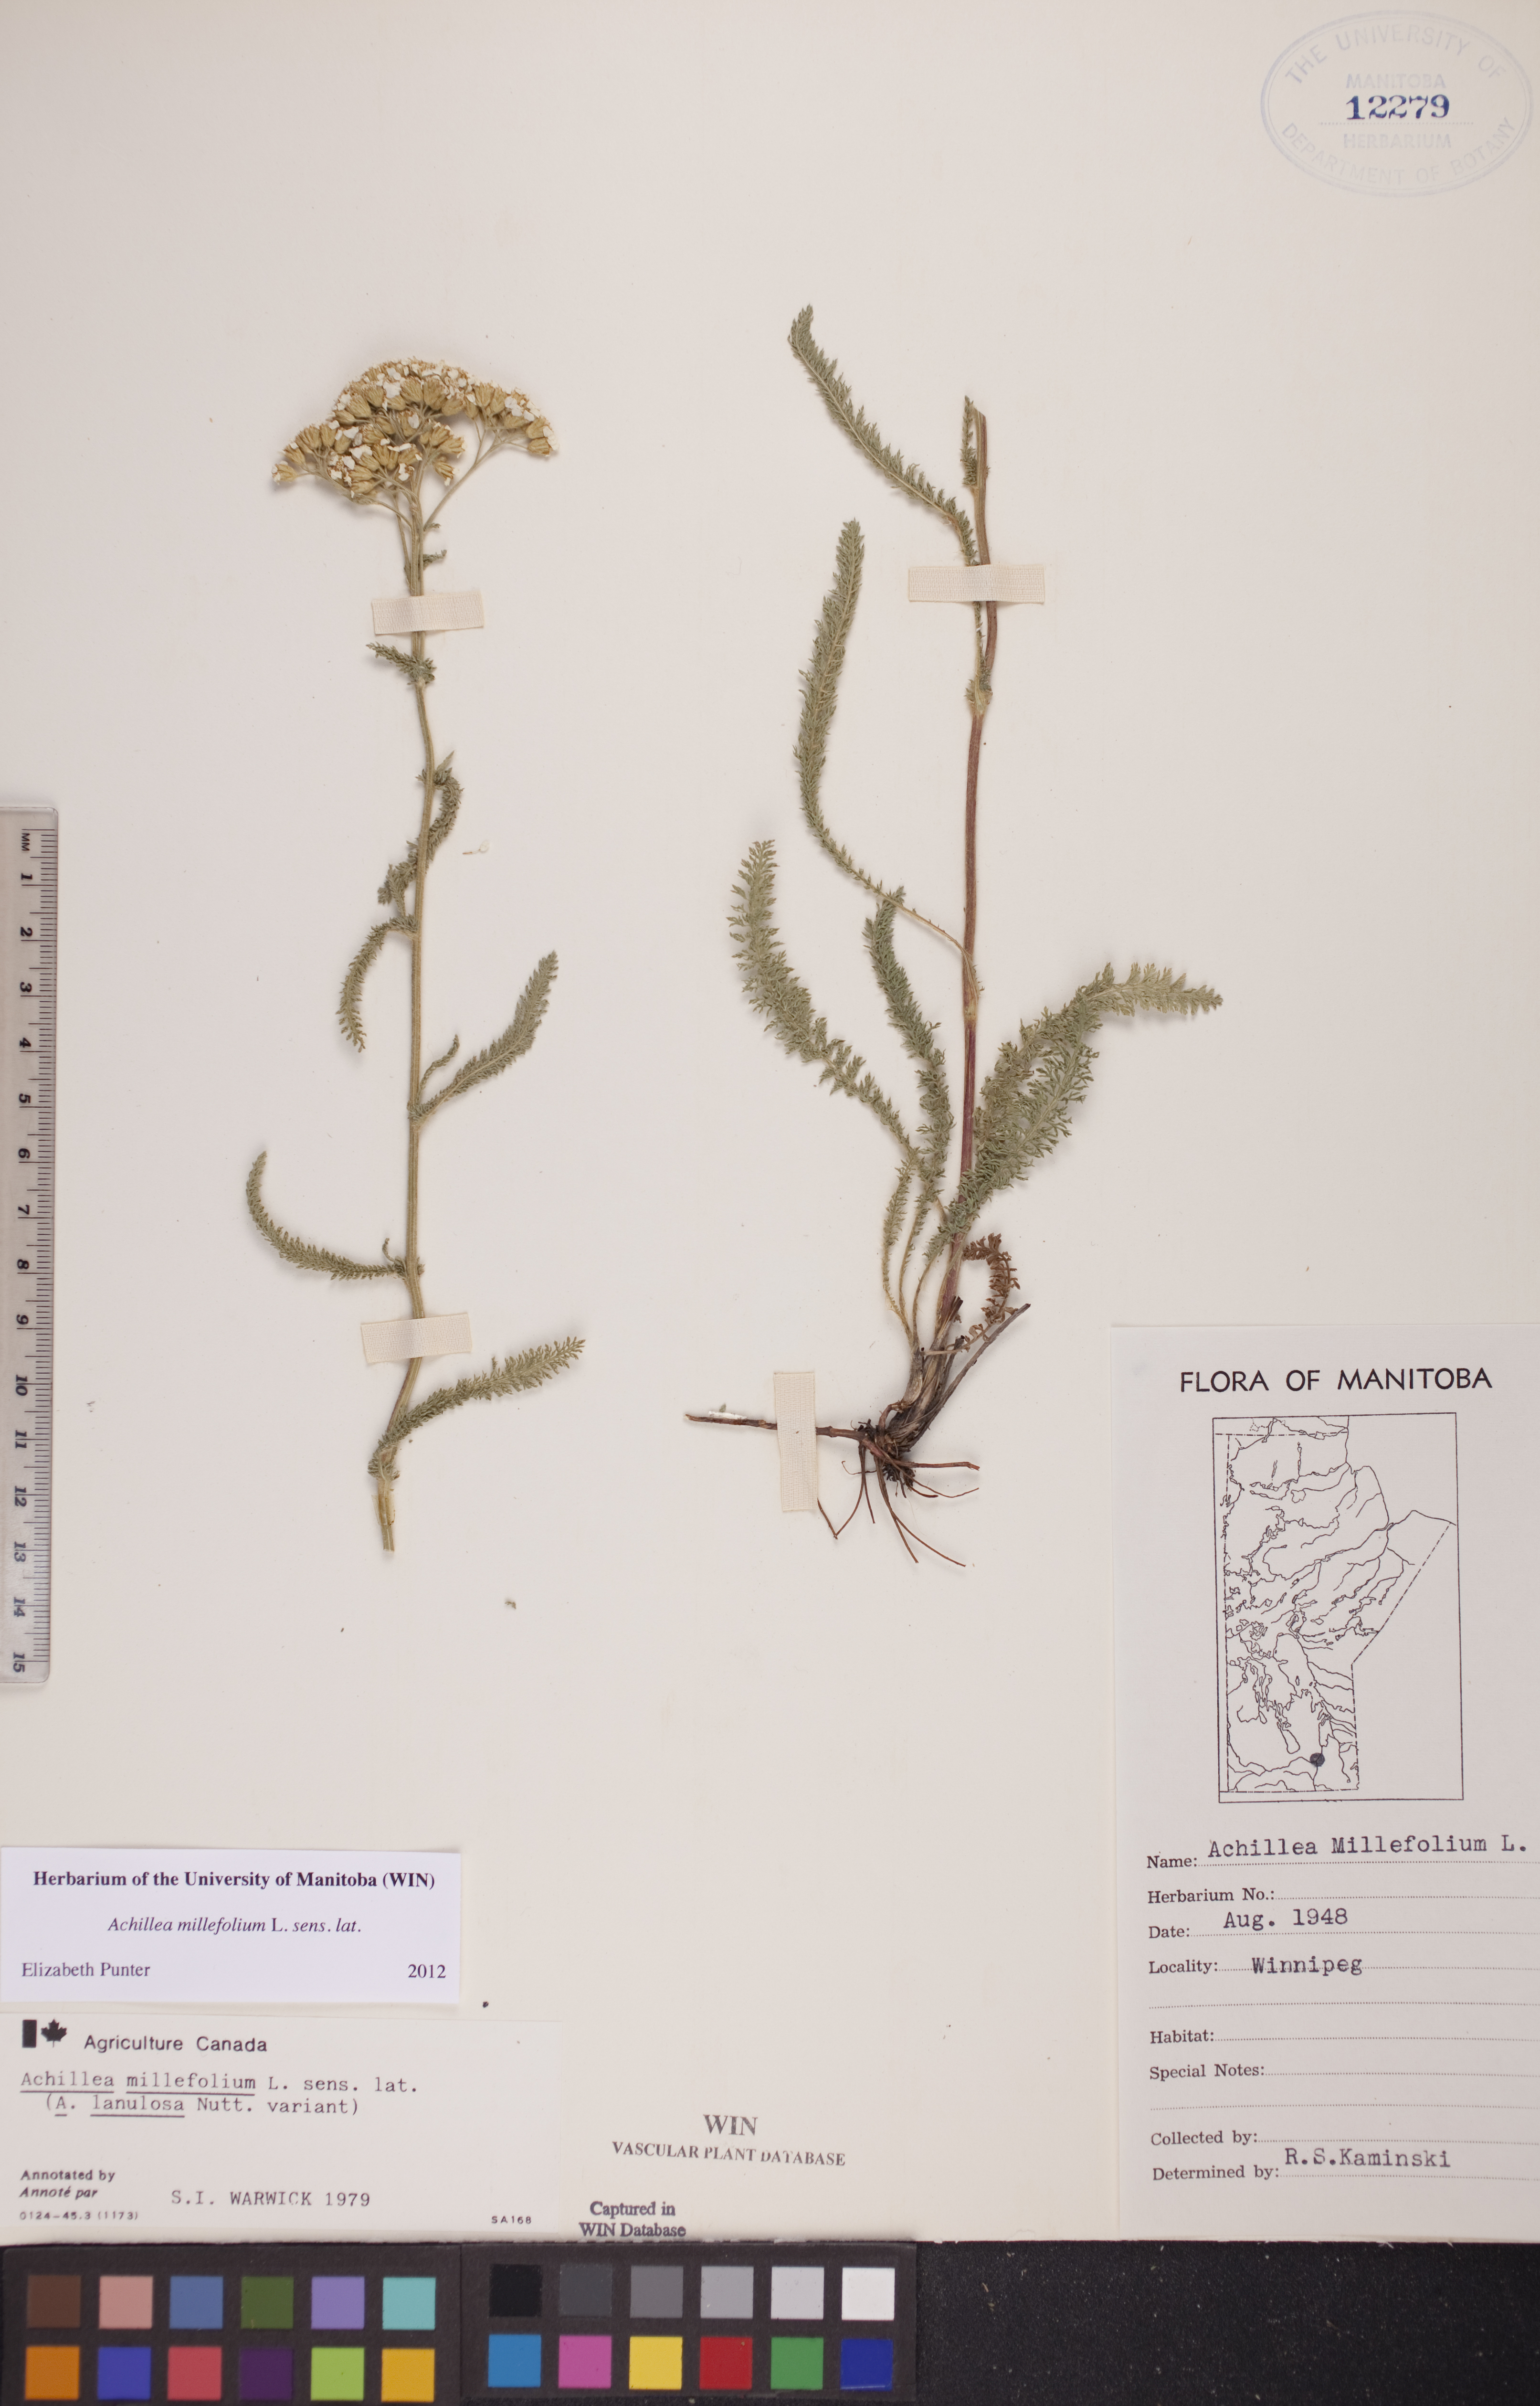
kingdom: Plantae
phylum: Tracheophyta
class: Magnoliopsida
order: Asterales
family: Asteraceae
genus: Achillea
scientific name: Achillea millefolium
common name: Yarrow
